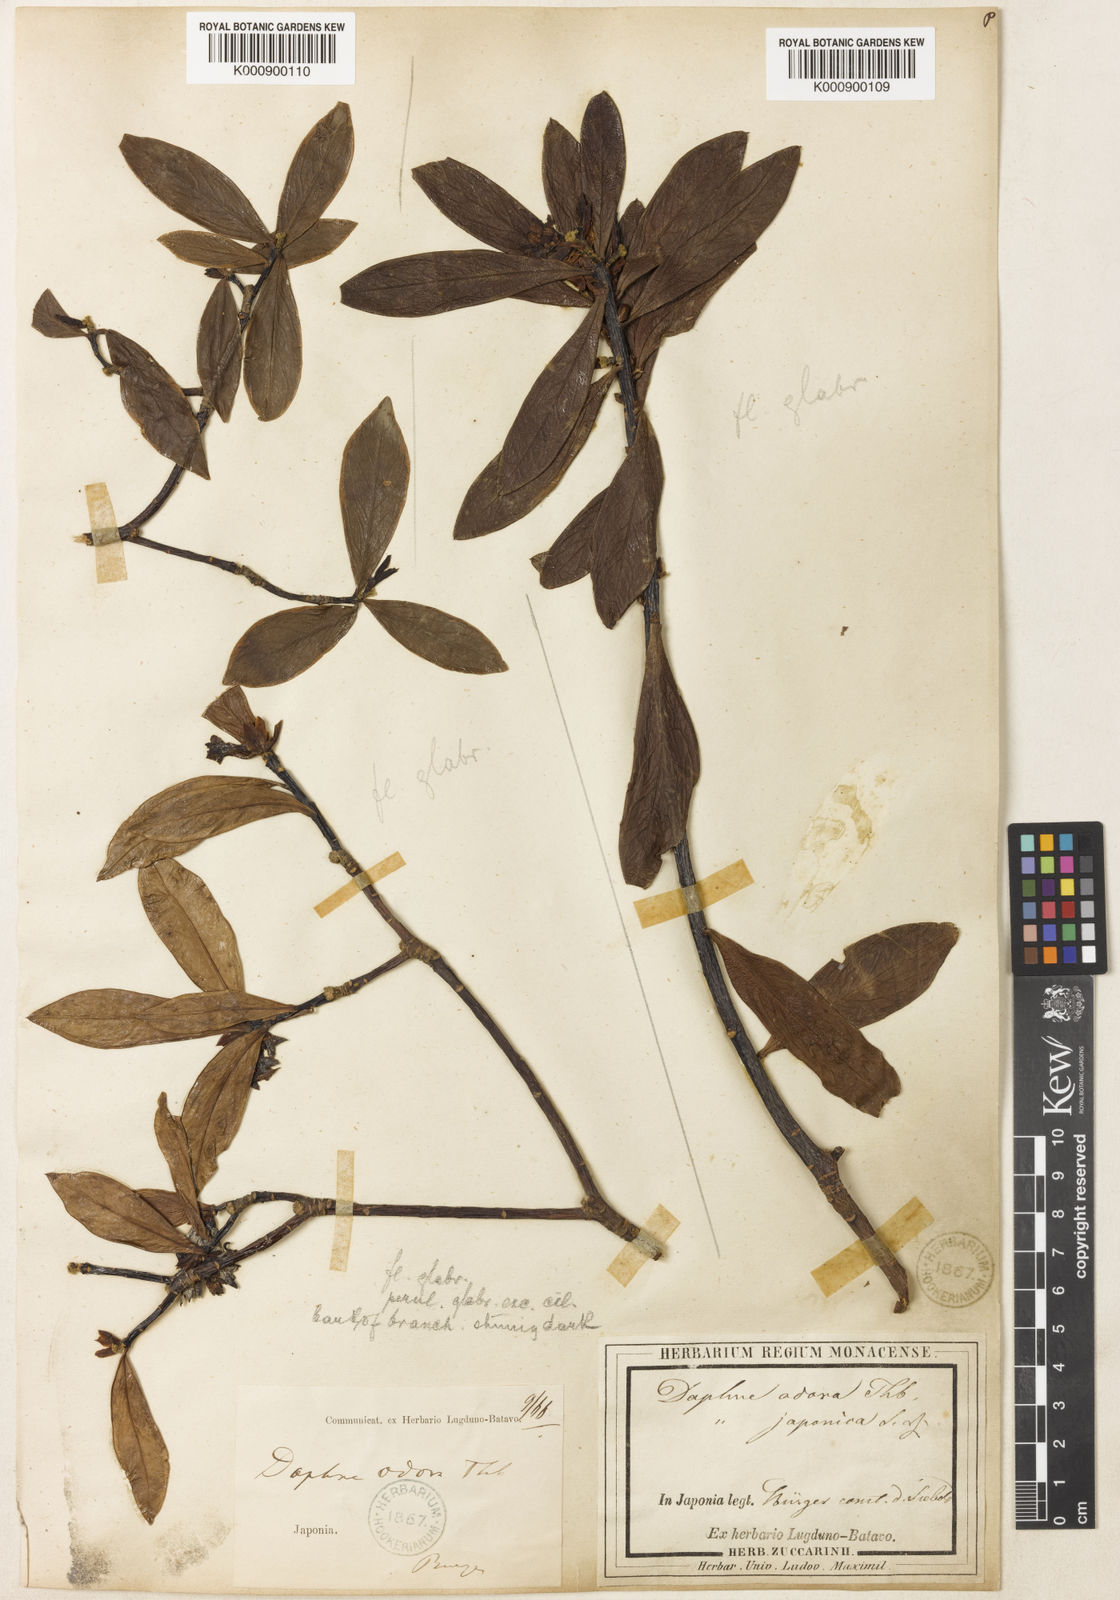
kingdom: Plantae
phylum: Tracheophyta
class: Magnoliopsida
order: Malvales
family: Thymelaeaceae
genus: Daphne
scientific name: Daphne odora
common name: Winter daphne
